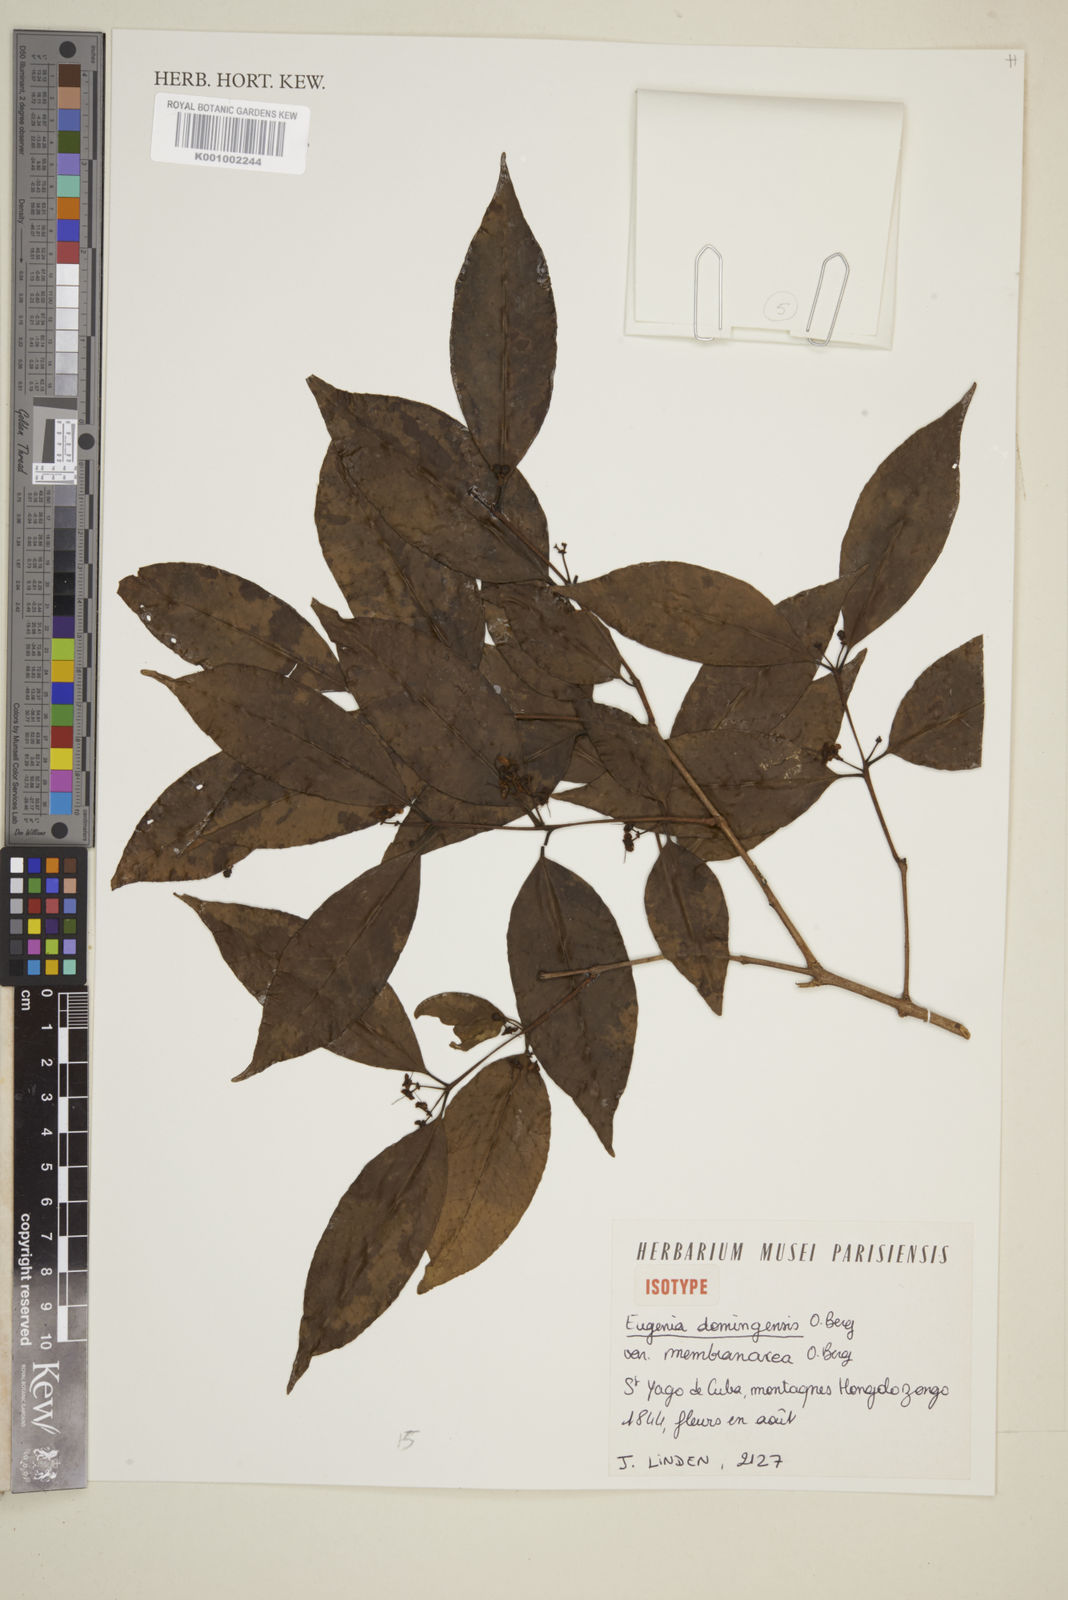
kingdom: Plantae
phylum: Tracheophyta
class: Magnoliopsida
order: Myrtales
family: Myrtaceae
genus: Eugenia
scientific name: Eugenia domingensis
